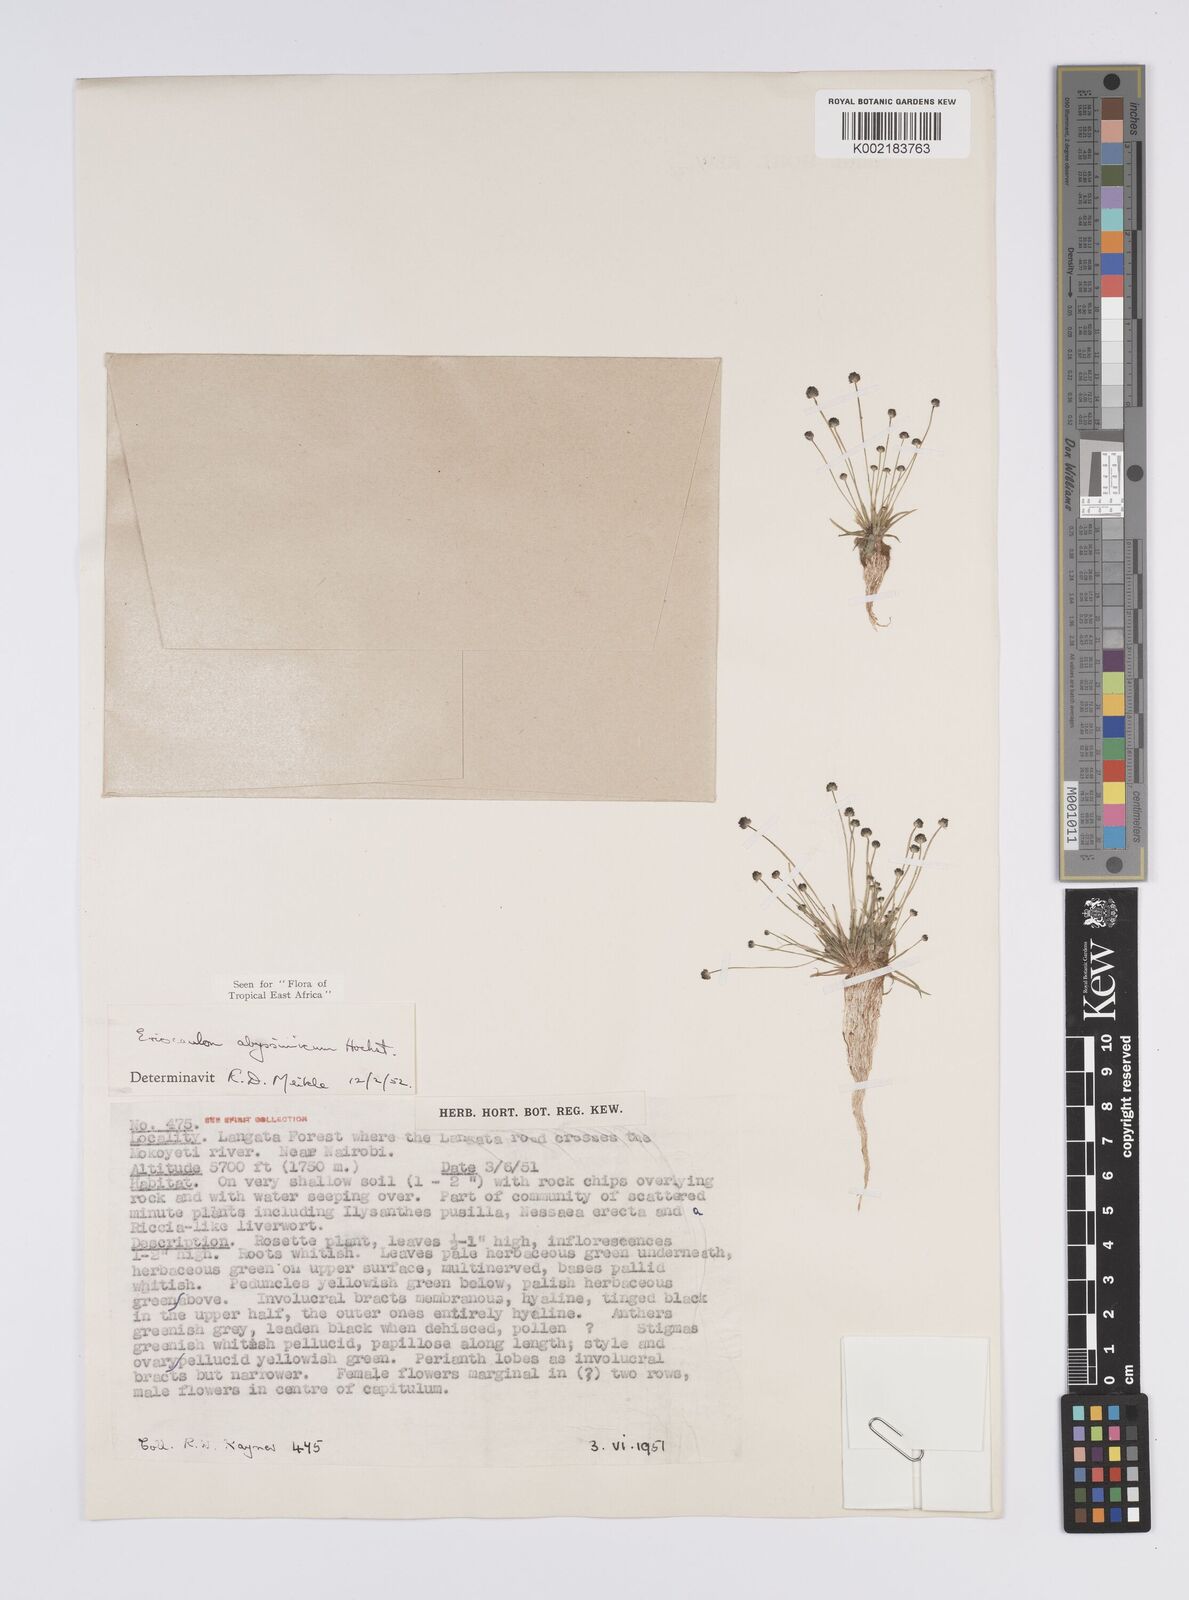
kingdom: Plantae
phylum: Tracheophyta
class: Liliopsida
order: Poales
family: Eriocaulaceae
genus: Eriocaulon
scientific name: Eriocaulon abyssinicum
